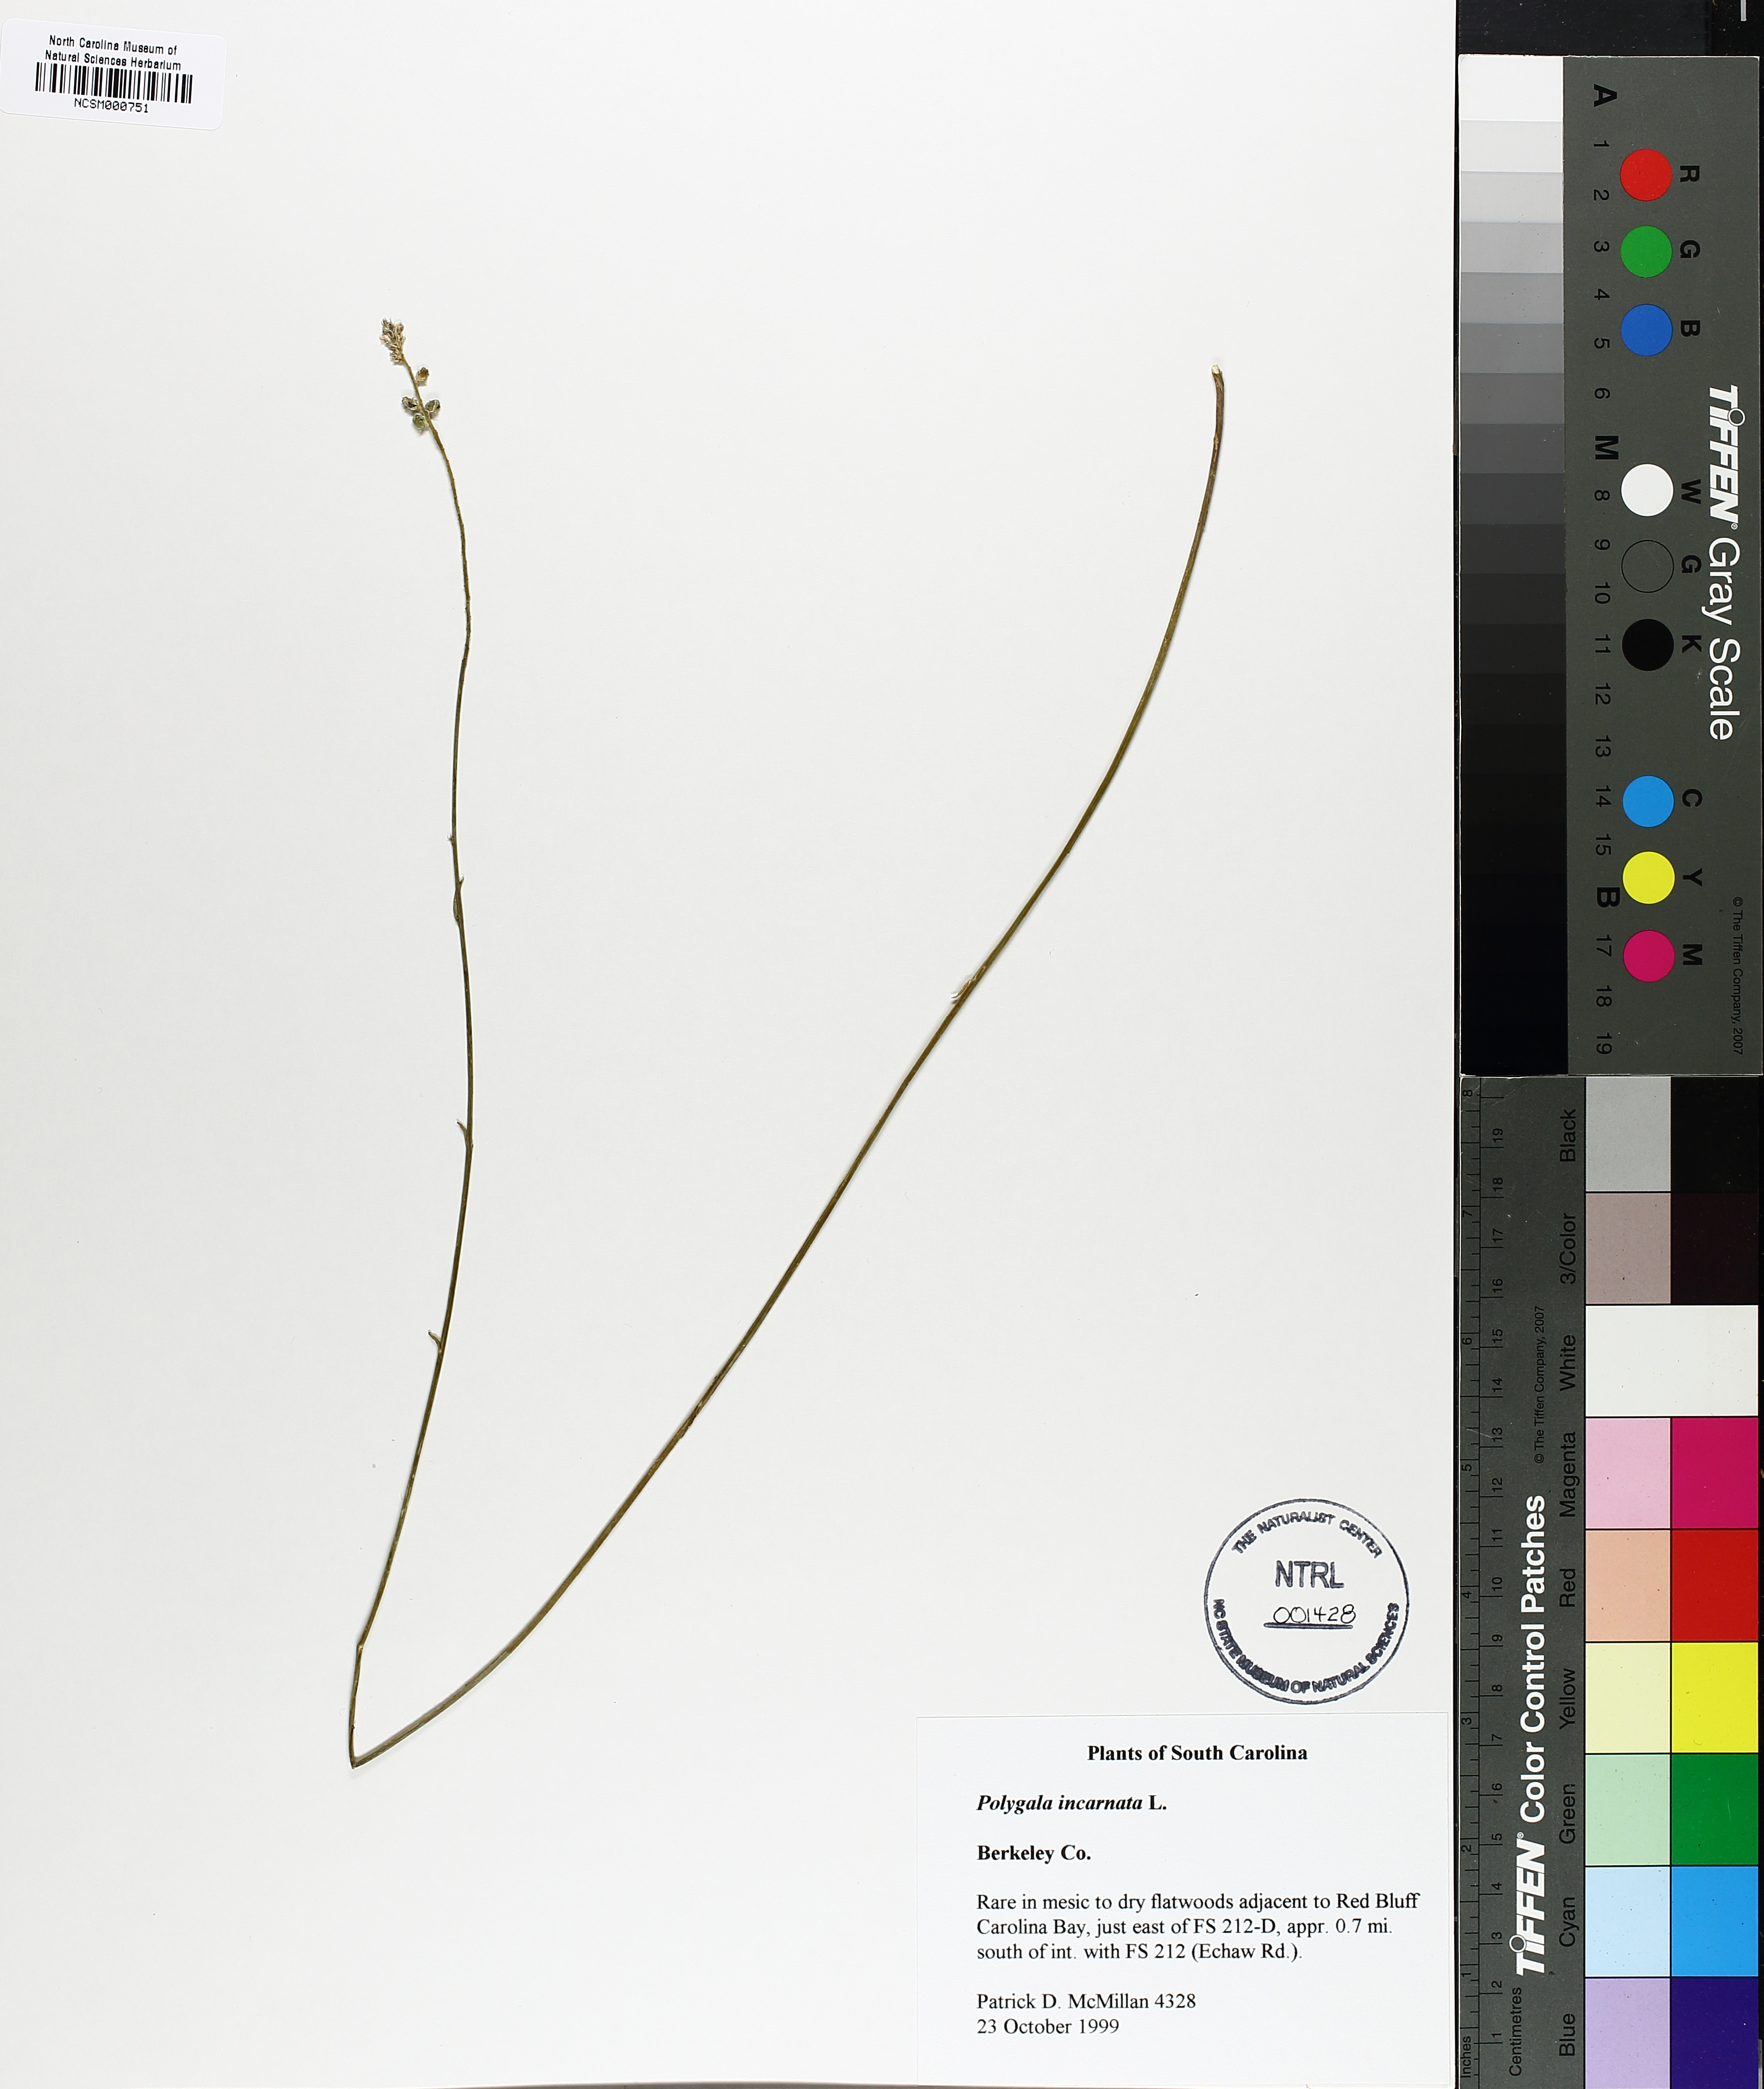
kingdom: Plantae
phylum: Tracheophyta
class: Magnoliopsida
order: Fabales
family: Polygalaceae
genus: Polygala
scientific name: Polygala incarnata
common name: Pink milkwort
